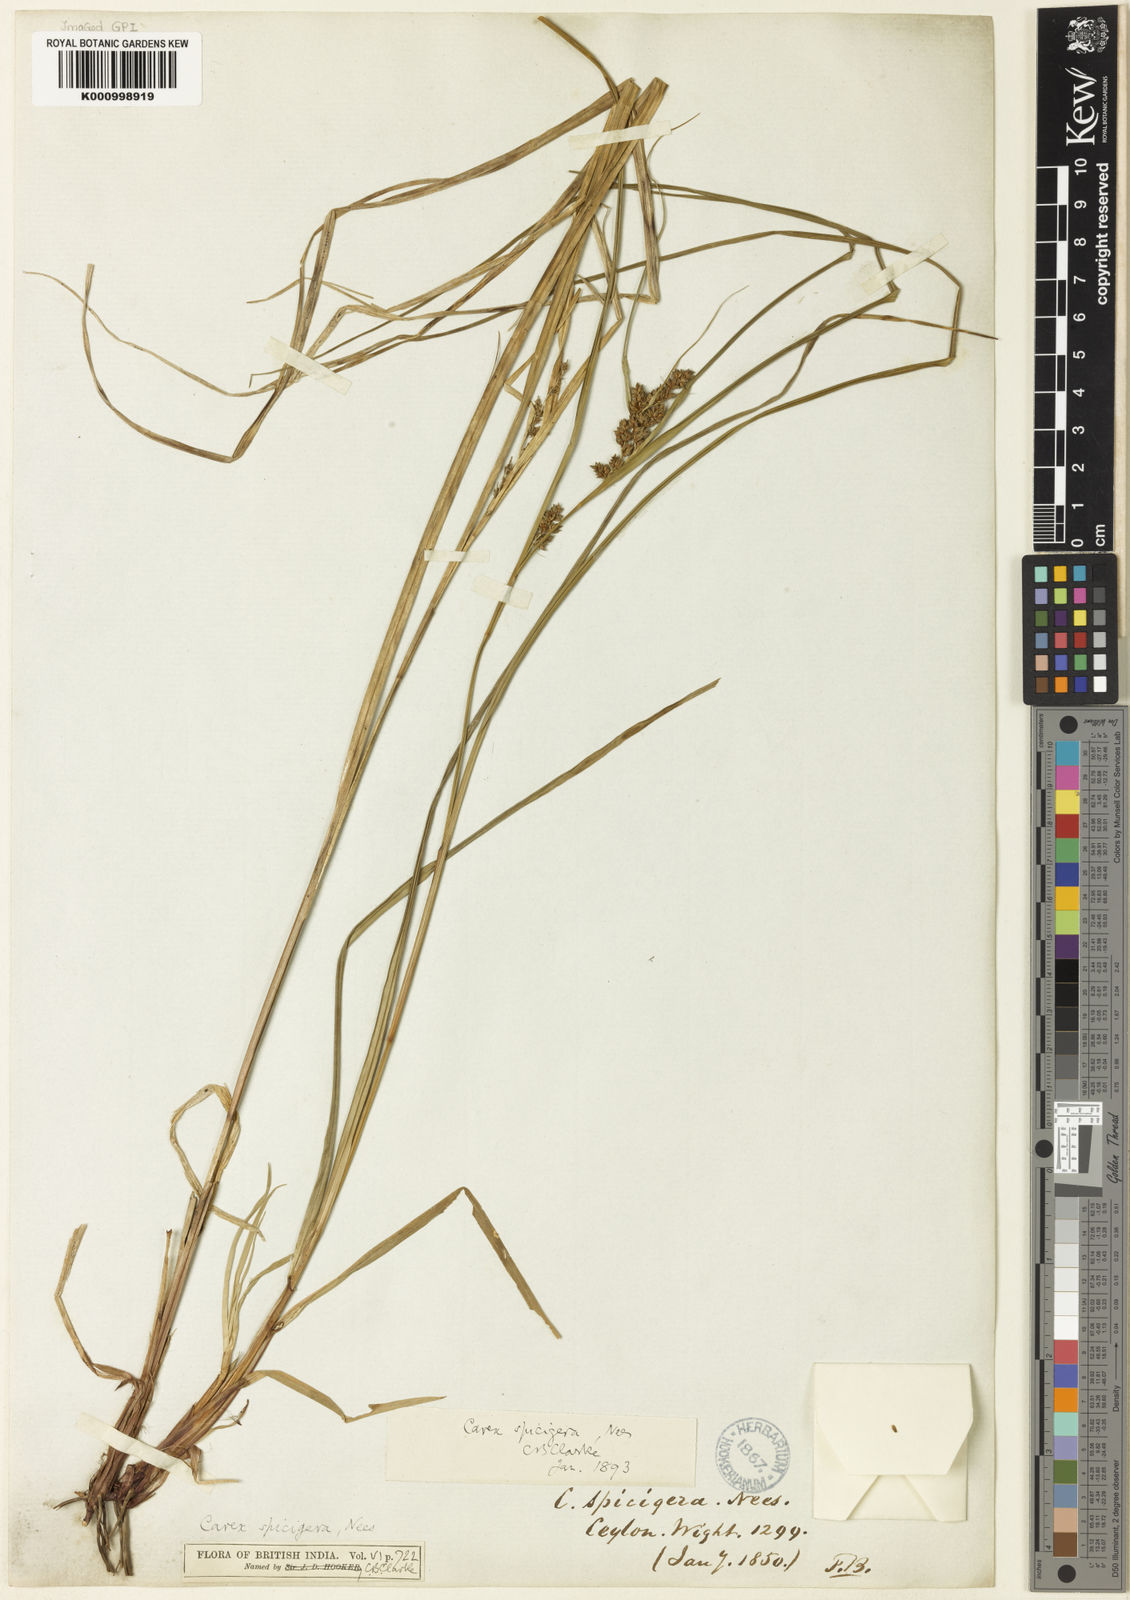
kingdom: Plantae
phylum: Tracheophyta
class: Liliopsida
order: Poales
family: Cyperaceae
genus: Carex
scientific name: Carex spicigera
